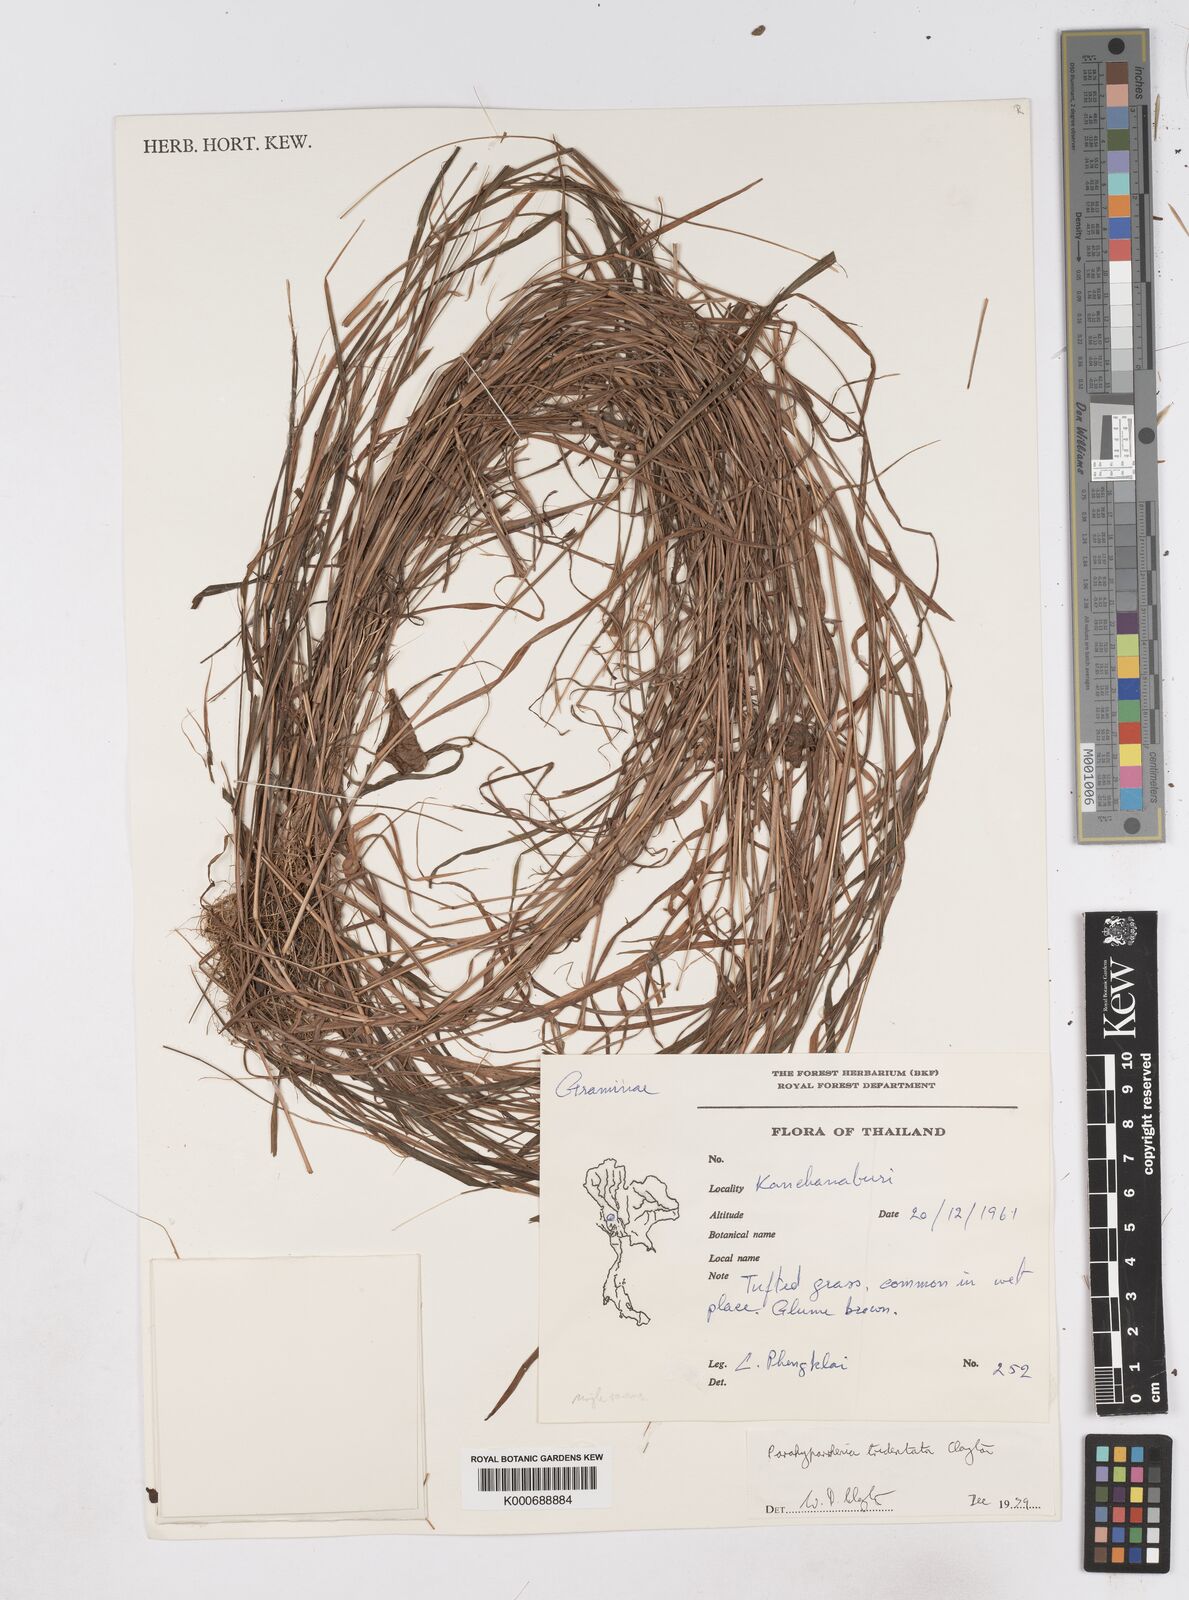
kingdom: Plantae
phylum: Tracheophyta
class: Liliopsida
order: Poales
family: Poaceae
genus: Parahyparrhenia
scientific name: Parahyparrhenia tridentata
